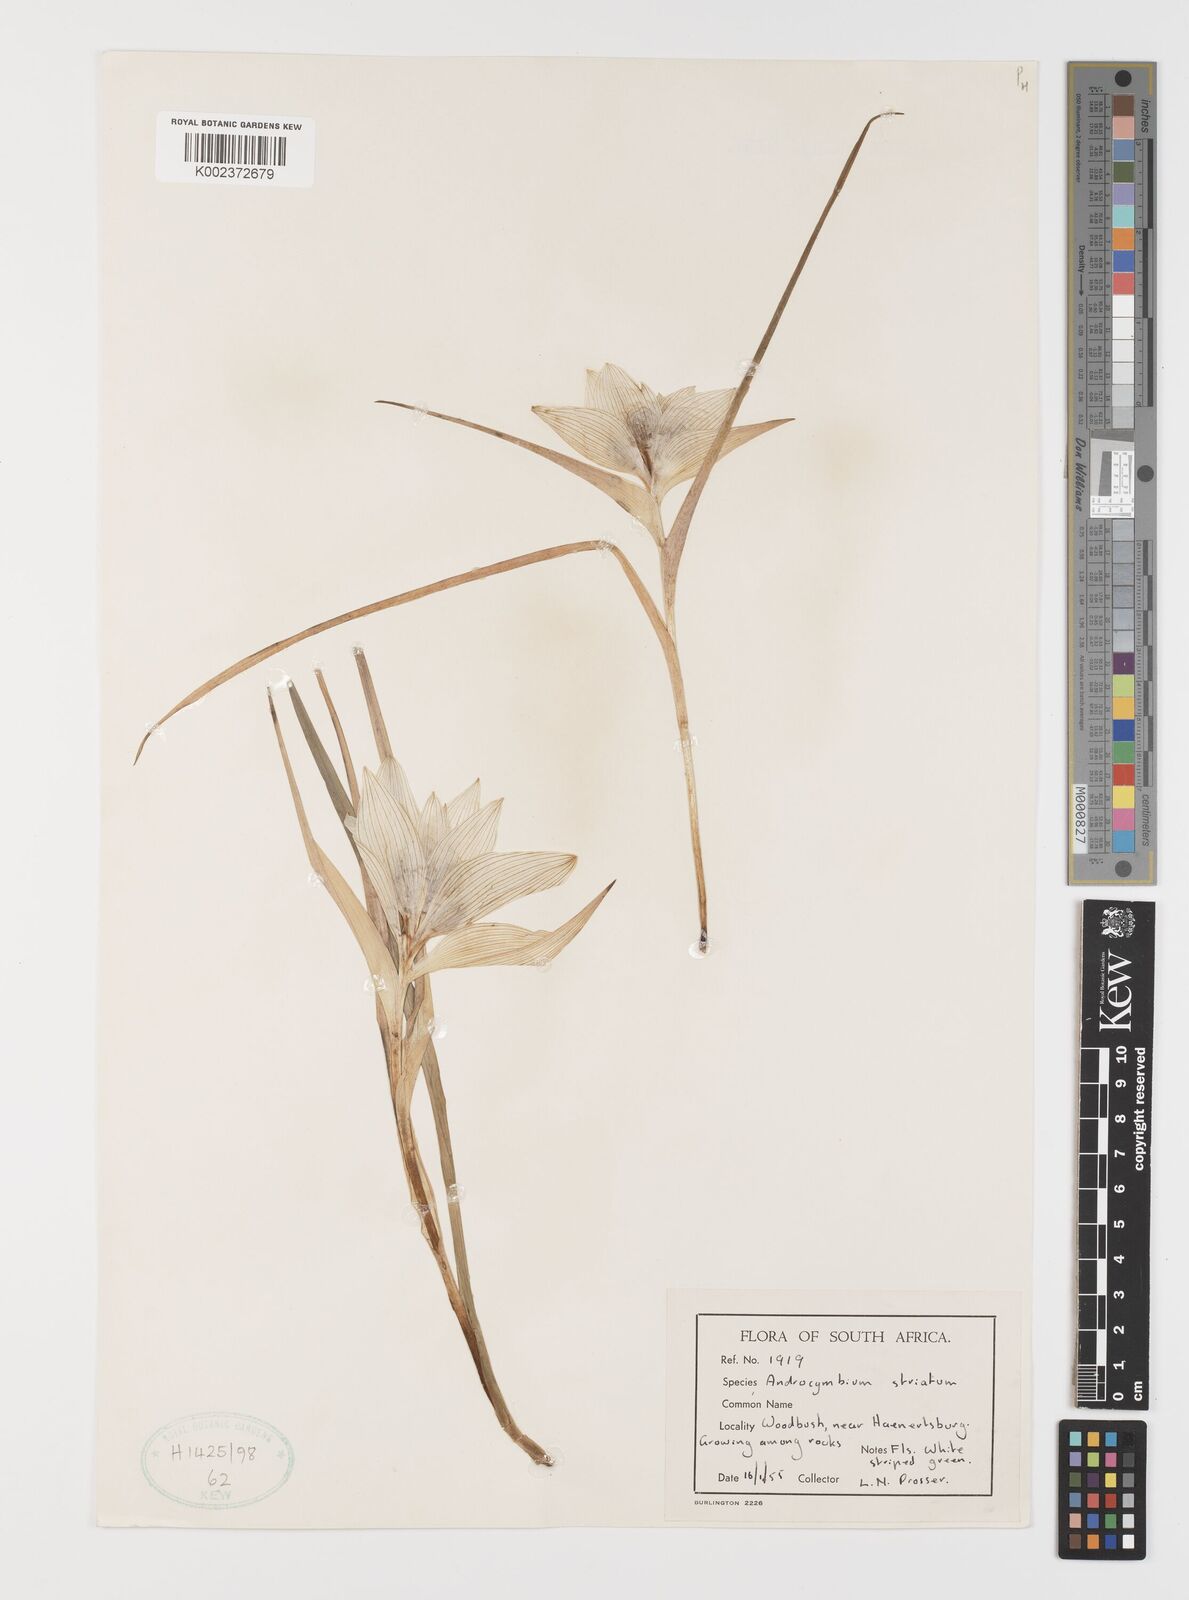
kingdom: Plantae
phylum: Tracheophyta
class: Liliopsida
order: Liliales
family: Colchicaceae
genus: Colchicum
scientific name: Colchicum striatum
